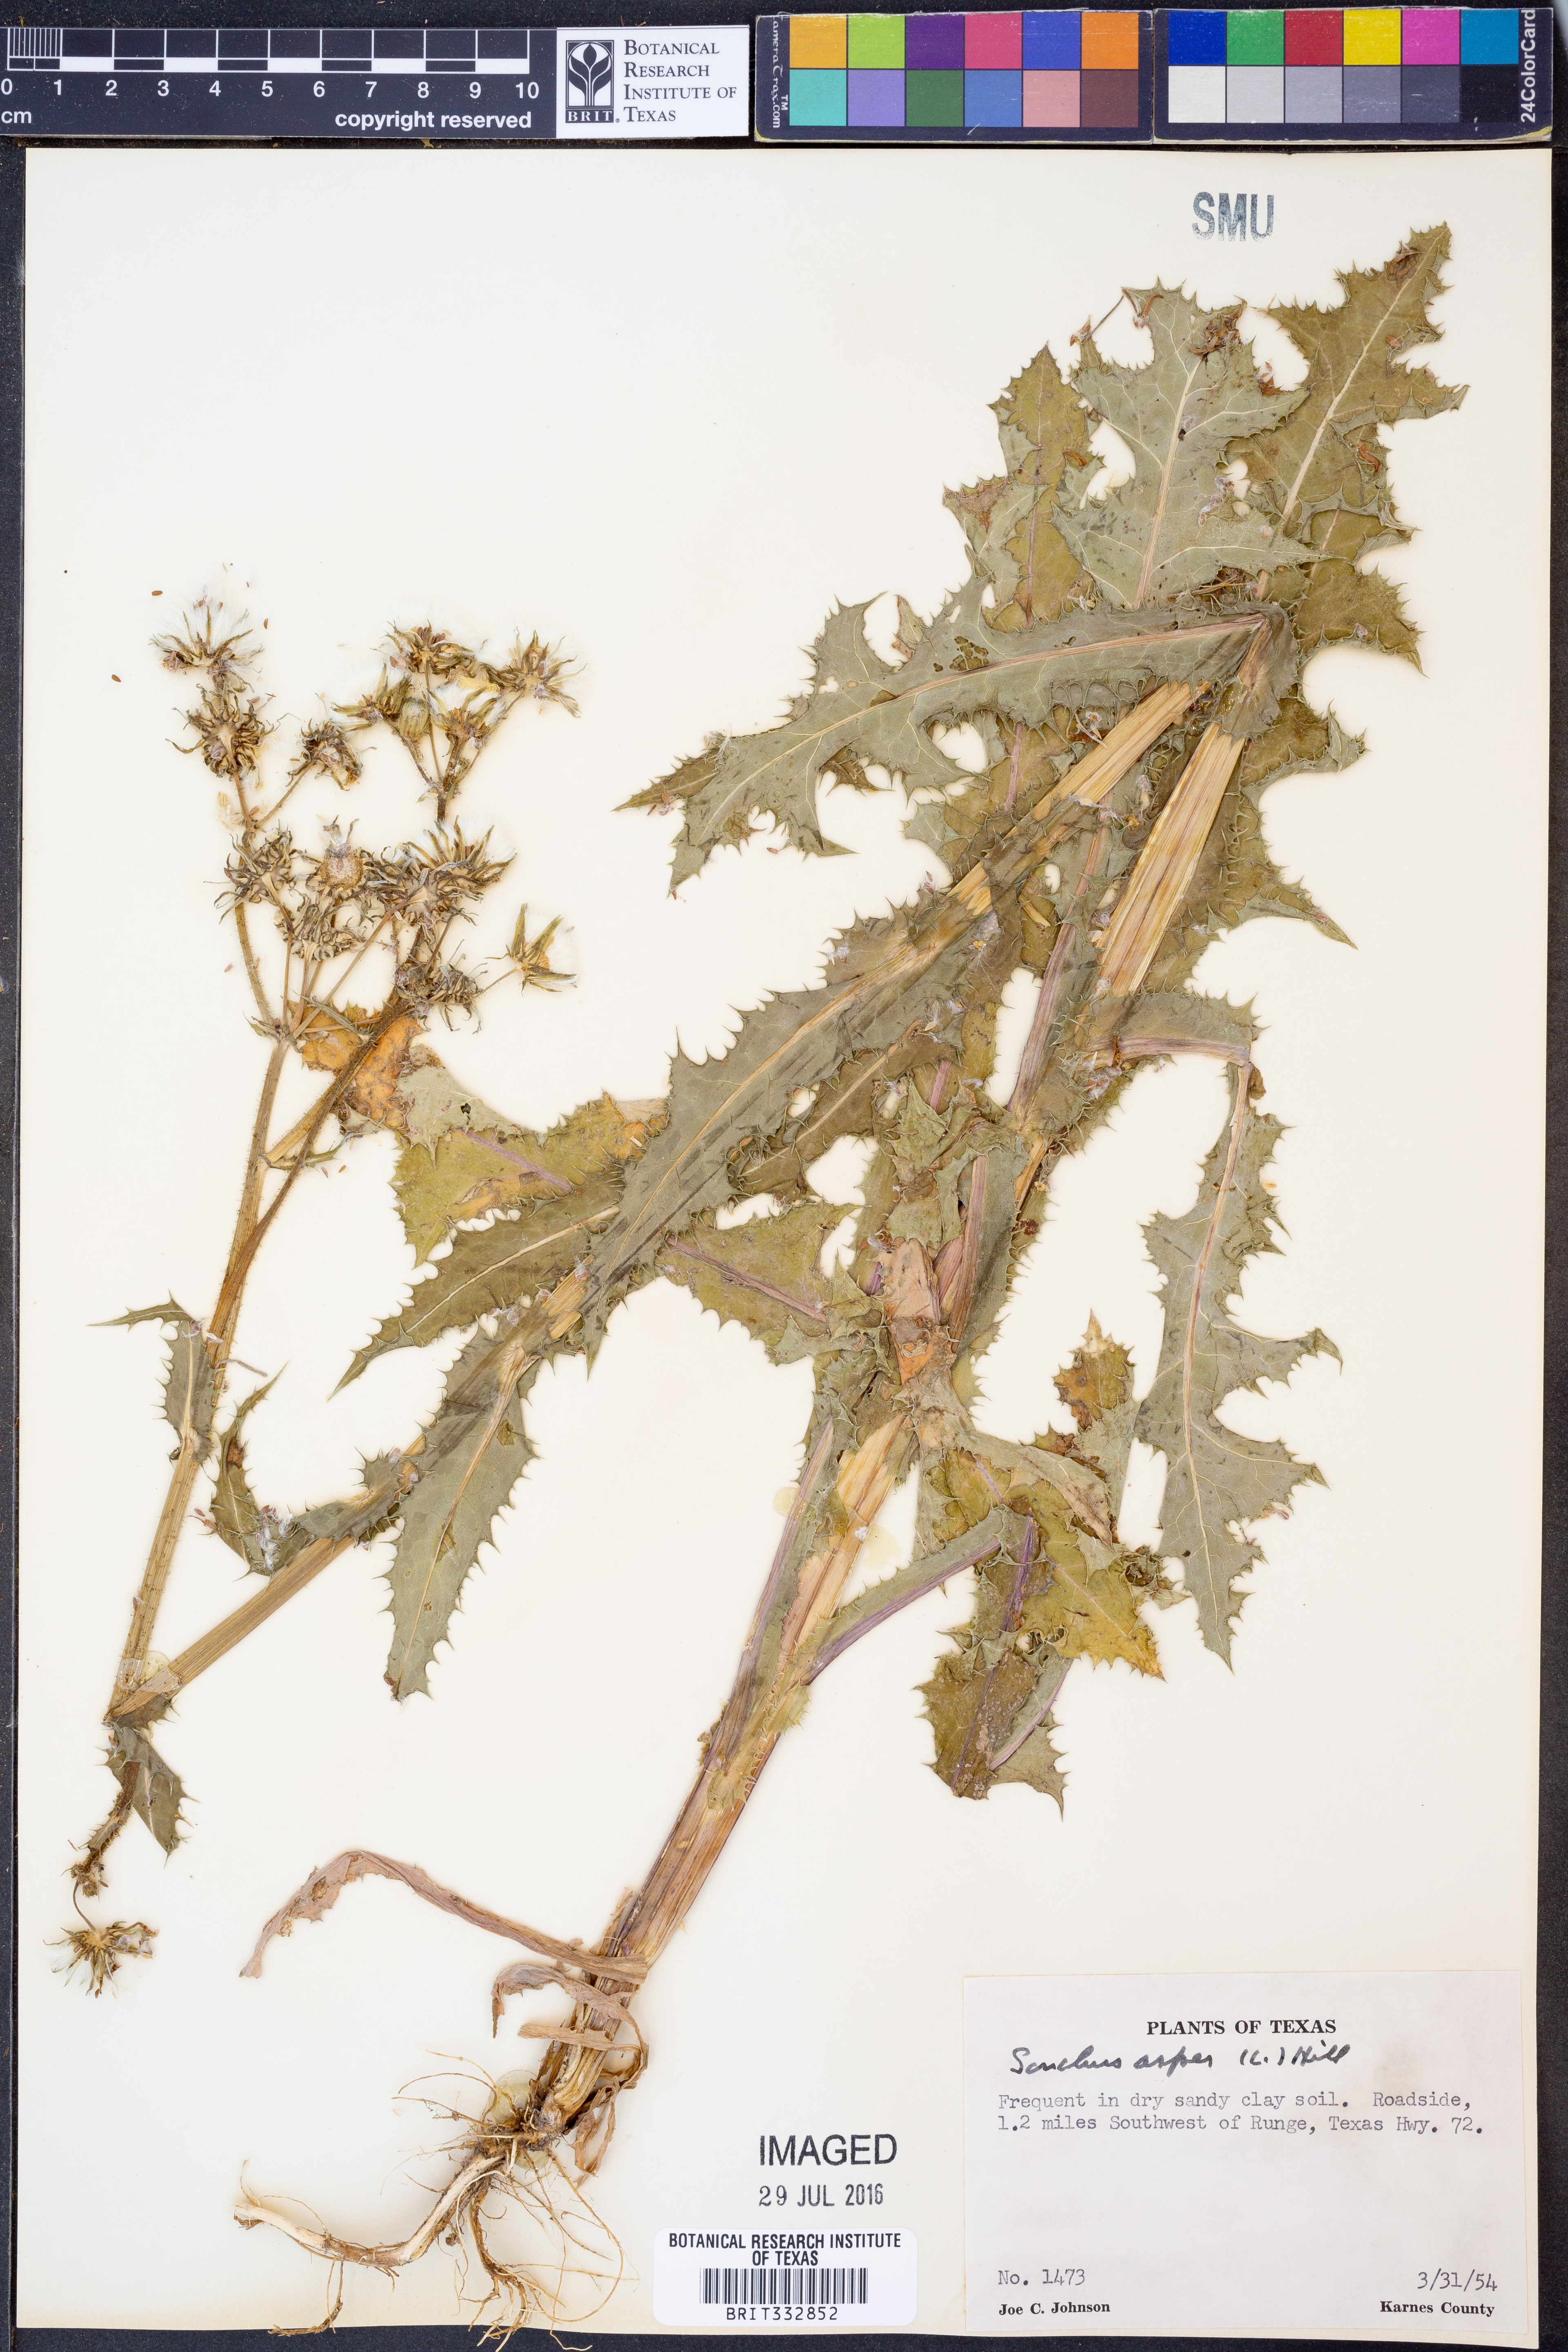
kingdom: Plantae
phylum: Tracheophyta
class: Magnoliopsida
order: Asterales
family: Asteraceae
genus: Sonchus
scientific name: Sonchus asper
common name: Prickly sow-thistle
